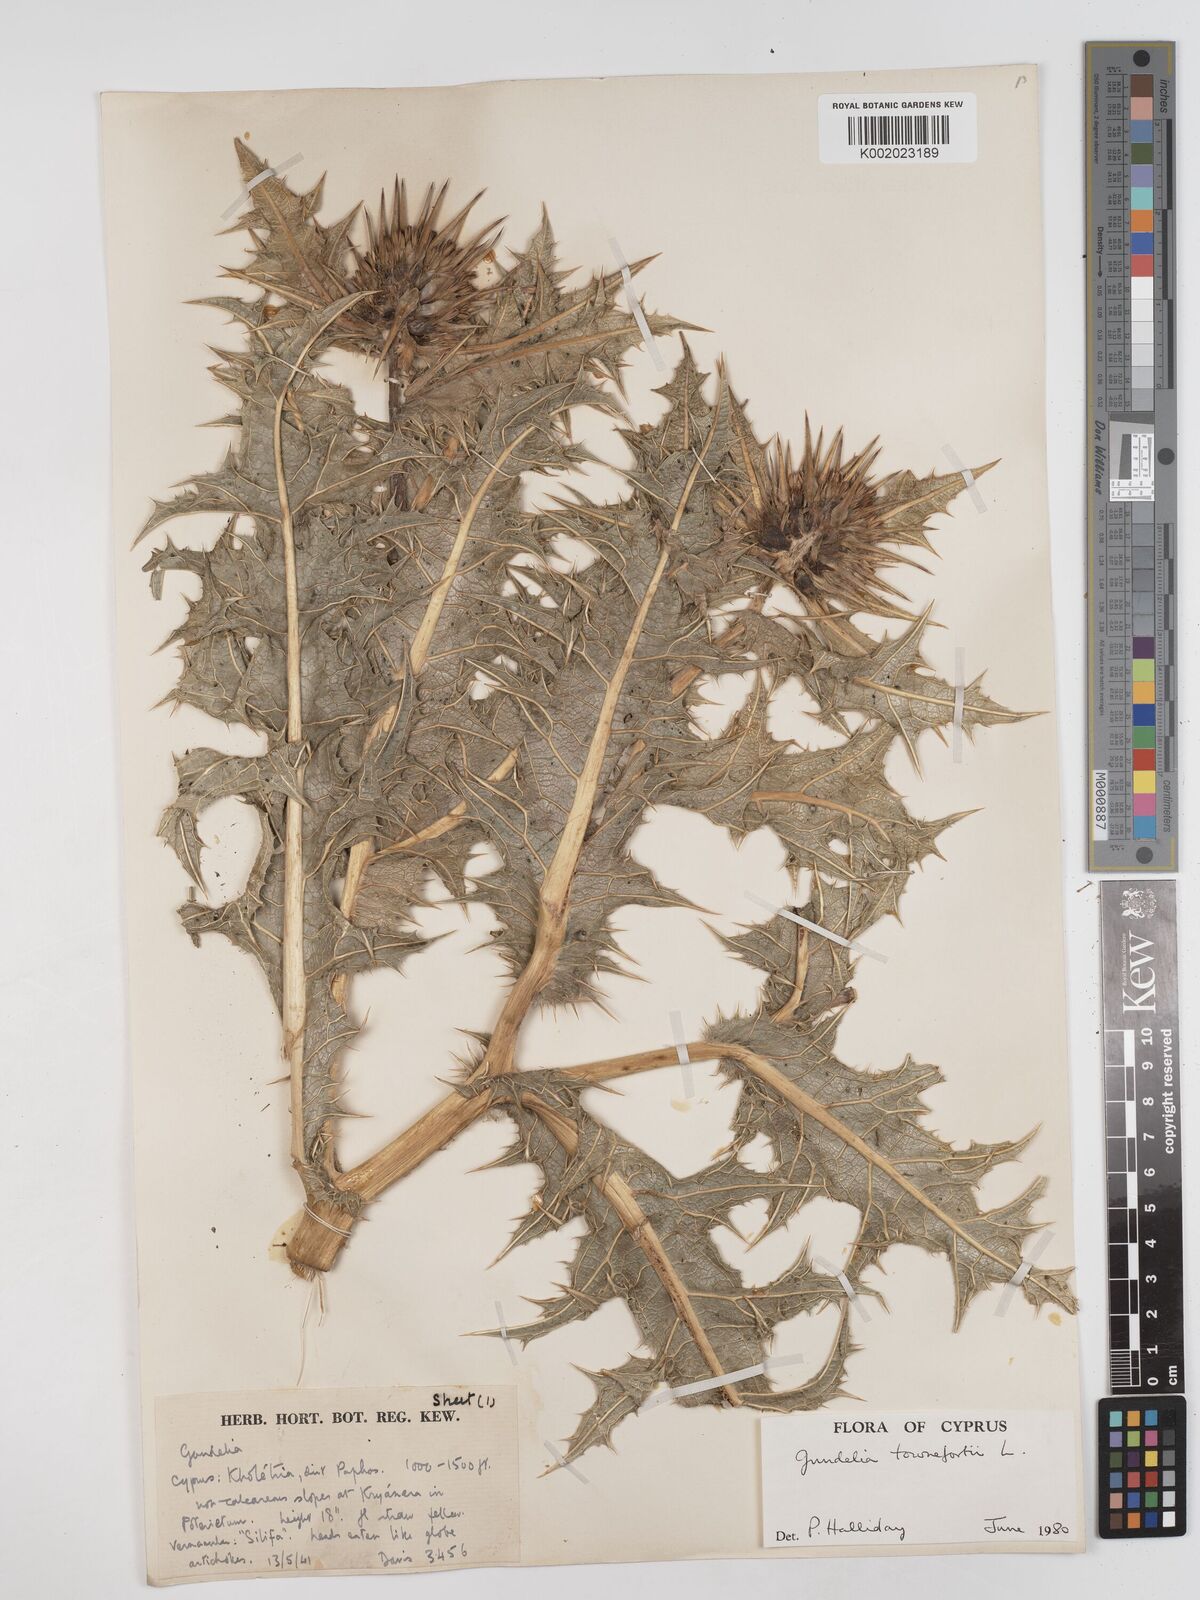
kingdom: Plantae
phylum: Tracheophyta
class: Magnoliopsida
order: Asterales
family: Asteraceae
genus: Gundelia
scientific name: Gundelia tournefortii
